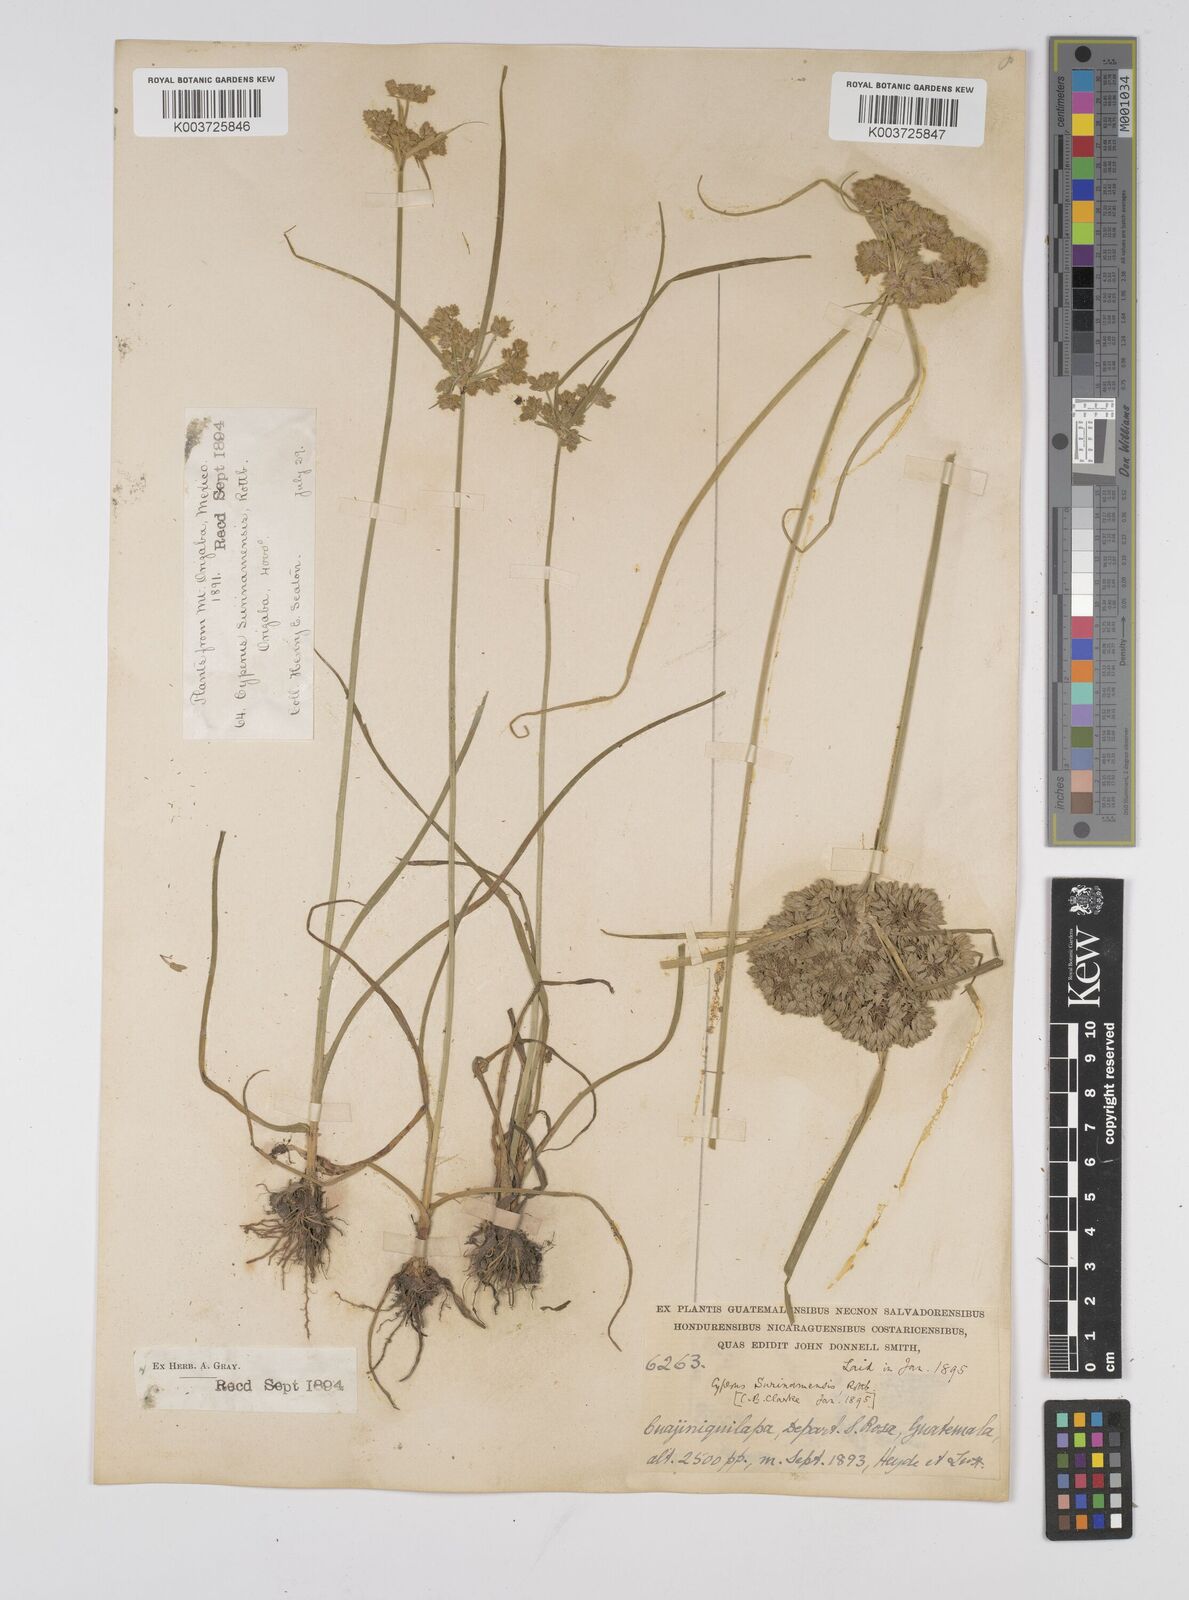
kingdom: Plantae
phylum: Tracheophyta
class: Liliopsida
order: Poales
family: Cyperaceae
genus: Cyperus
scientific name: Cyperus surinamensis
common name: Tropical flat sedge
